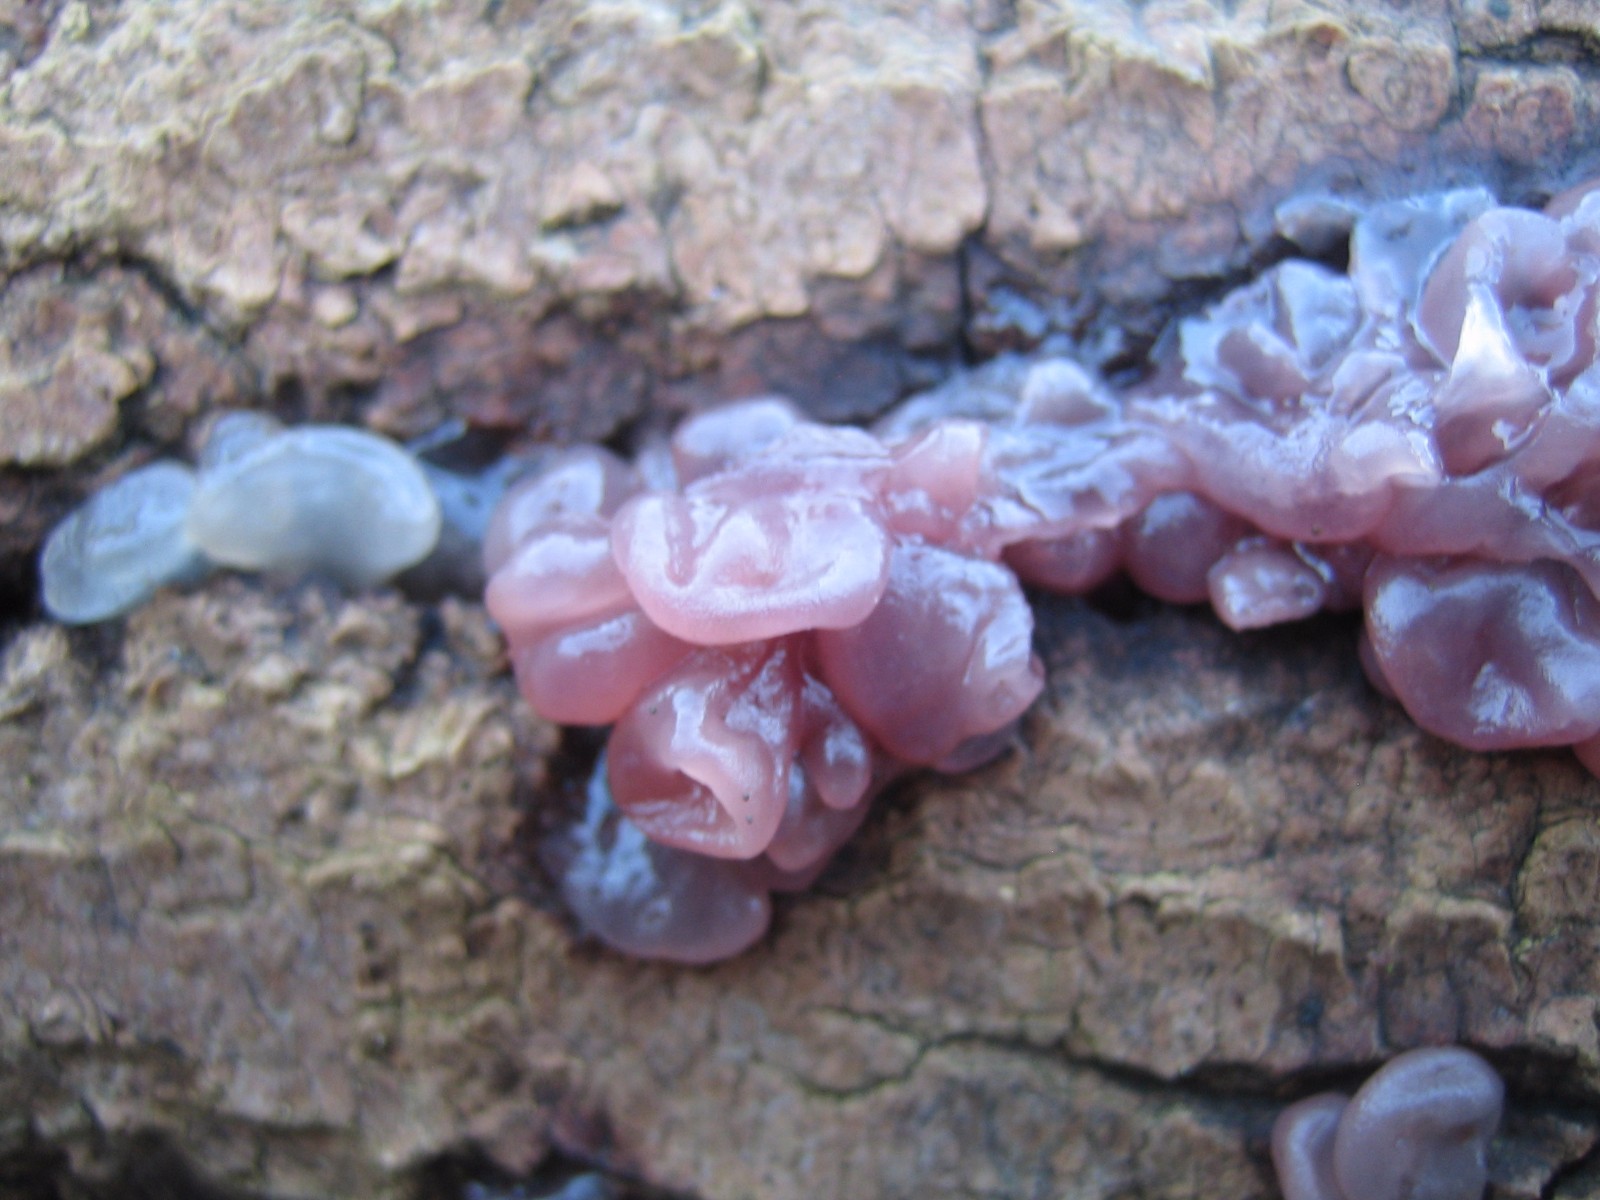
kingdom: Fungi
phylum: Ascomycota
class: Leotiomycetes
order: Helotiales
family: Gelatinodiscaceae
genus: Ascocoryne
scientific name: Ascocoryne sarcoides
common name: rødlilla sejskive
